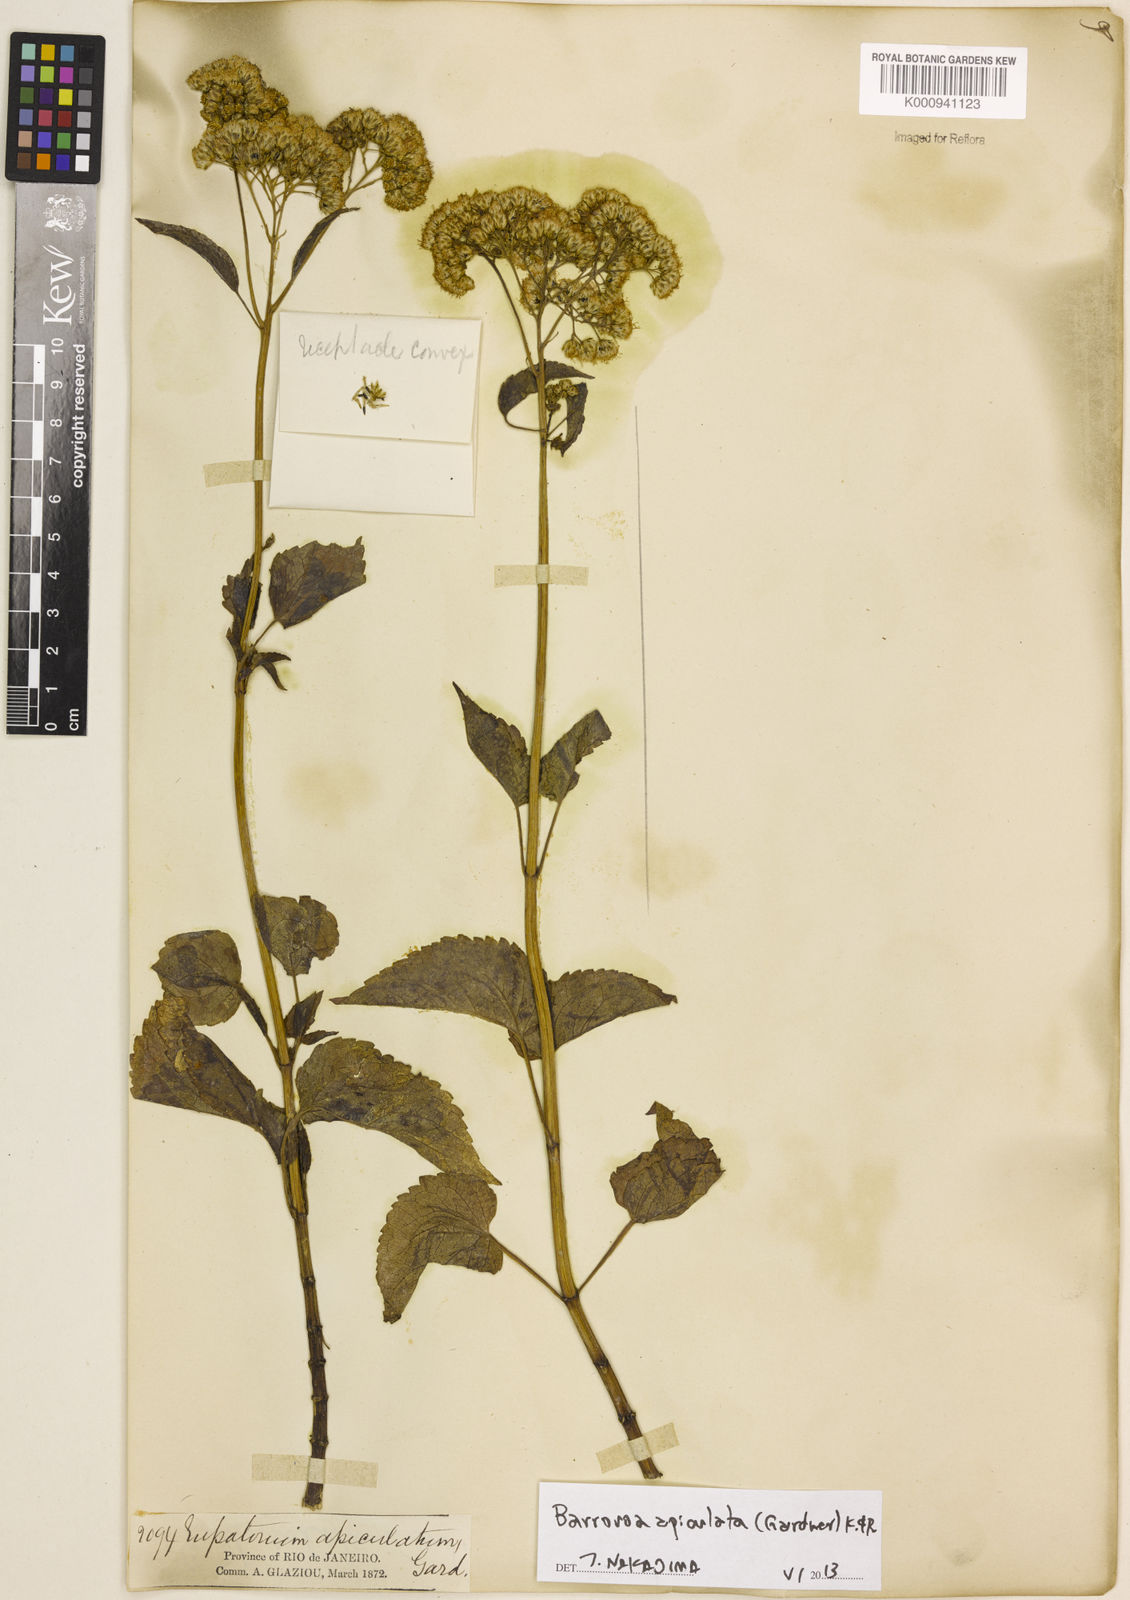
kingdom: Plantae
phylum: Tracheophyta
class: Magnoliopsida
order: Asterales
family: Asteraceae
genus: Barrosoa
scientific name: Barrosoa apiculata
